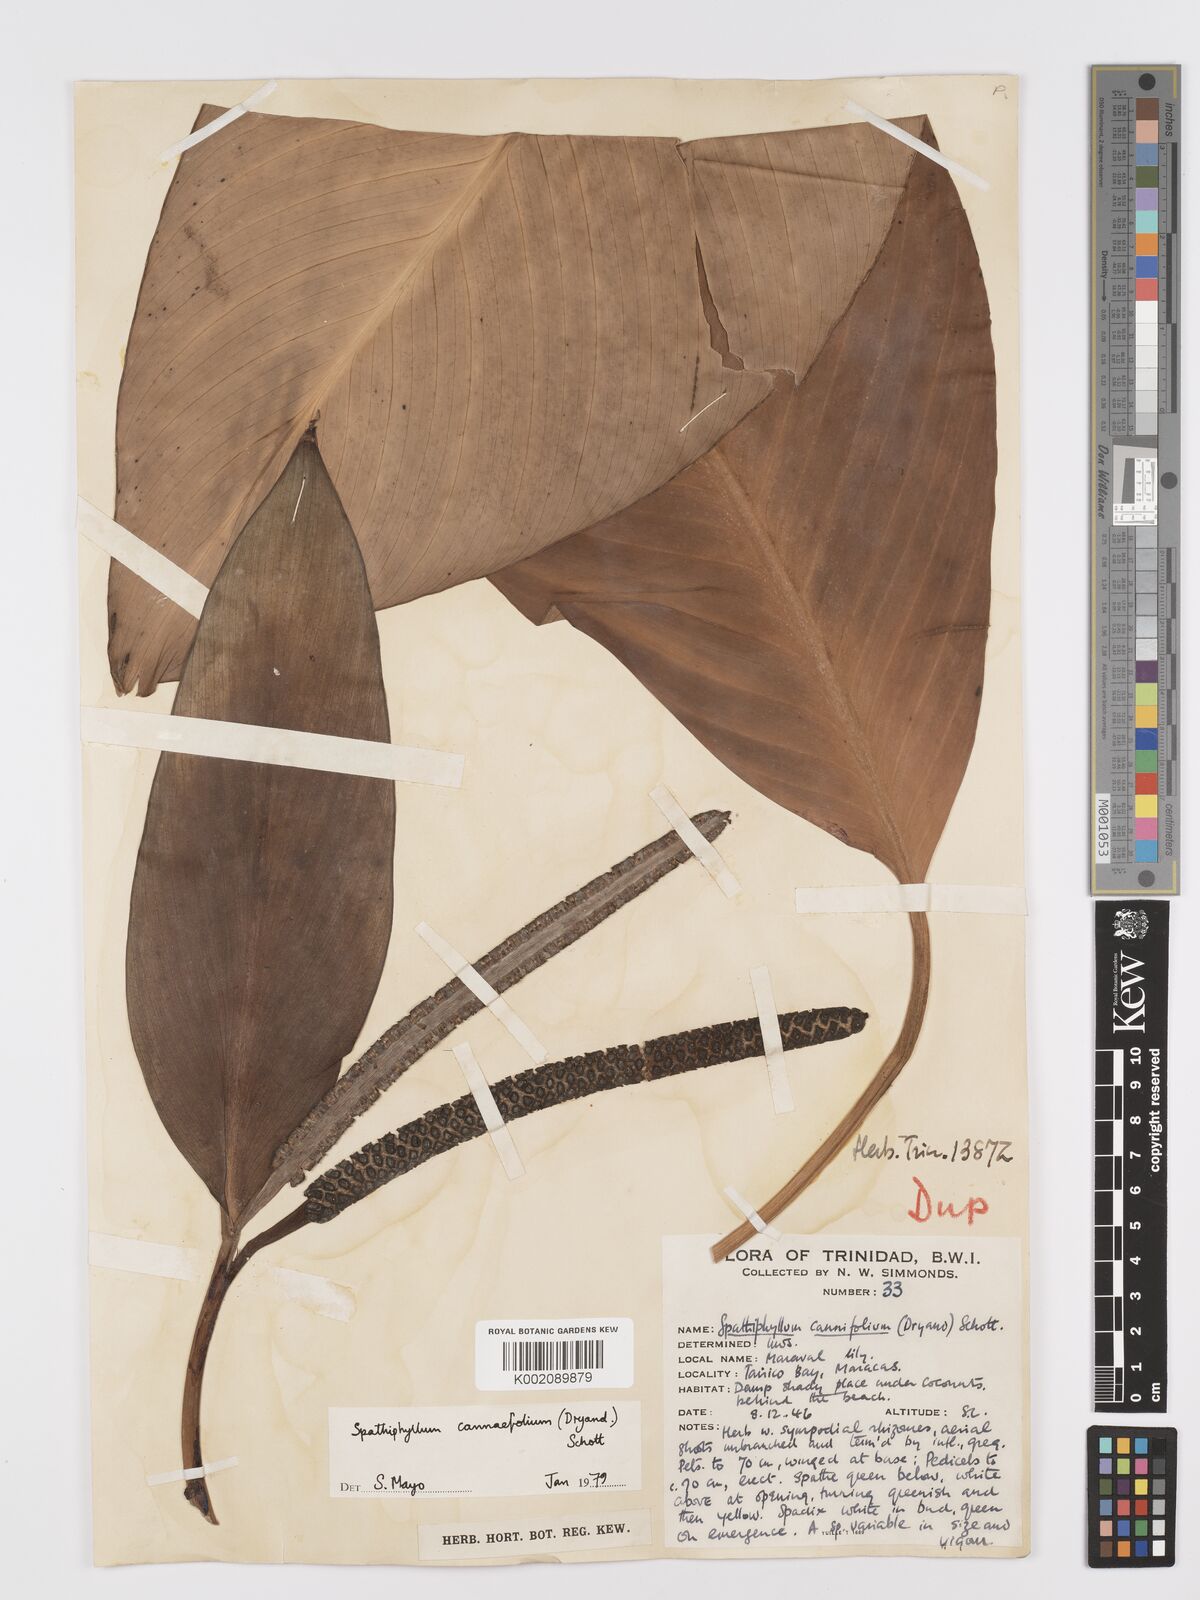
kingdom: Plantae
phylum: Tracheophyta
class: Liliopsida
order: Alismatales
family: Araceae
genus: Spathiphyllum
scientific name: Spathiphyllum cannifolium
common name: Spatheflower
